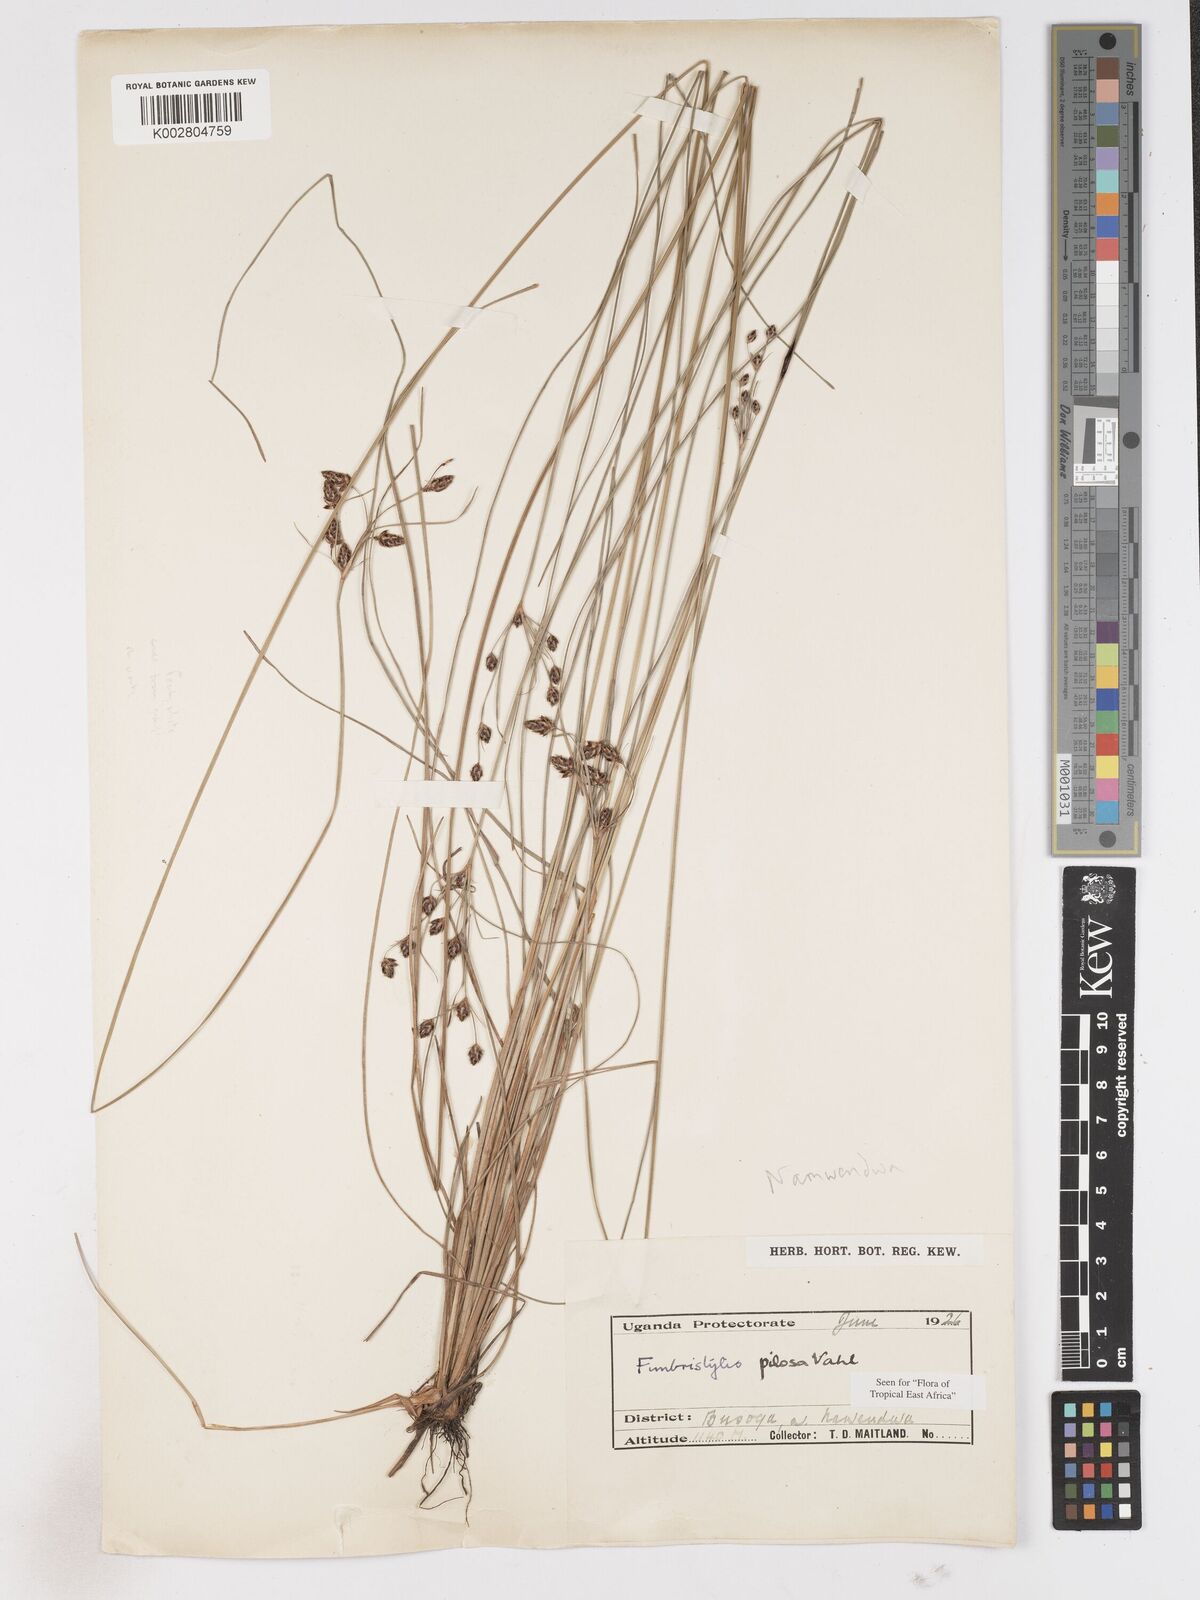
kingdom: Plantae
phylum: Tracheophyta
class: Liliopsida
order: Poales
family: Cyperaceae
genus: Fimbristylis
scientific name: Fimbristylis pilosa
